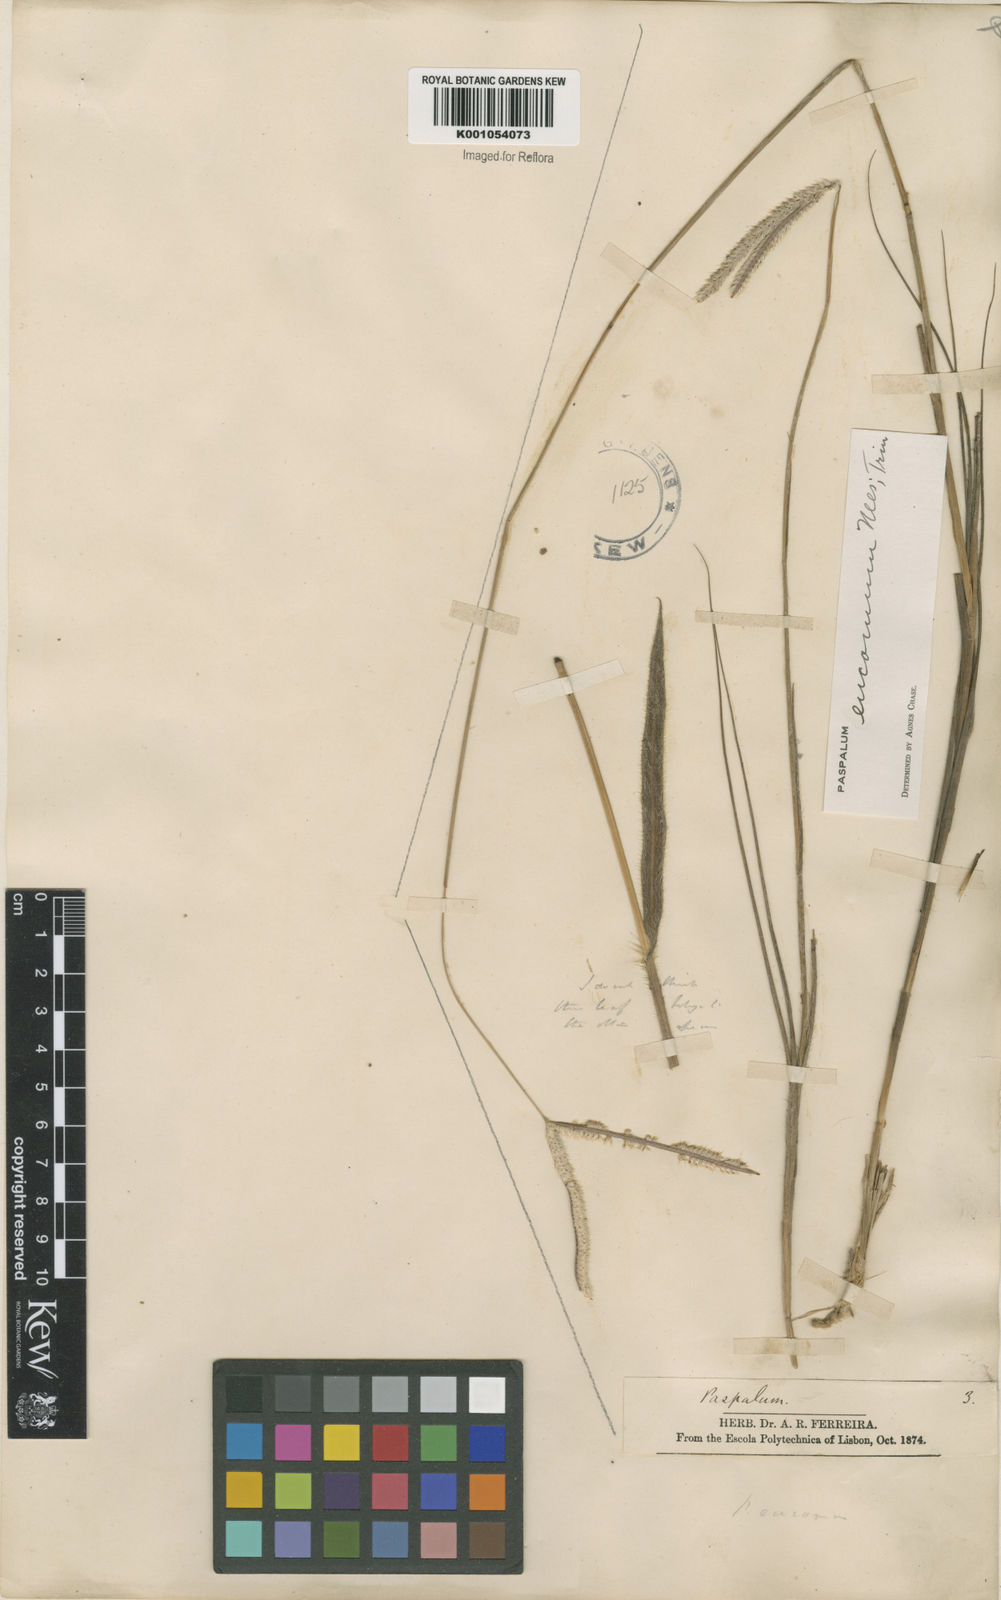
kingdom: Plantae
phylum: Tracheophyta
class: Liliopsida
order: Poales
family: Poaceae
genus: Paspalum
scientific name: Paspalum eucomum
